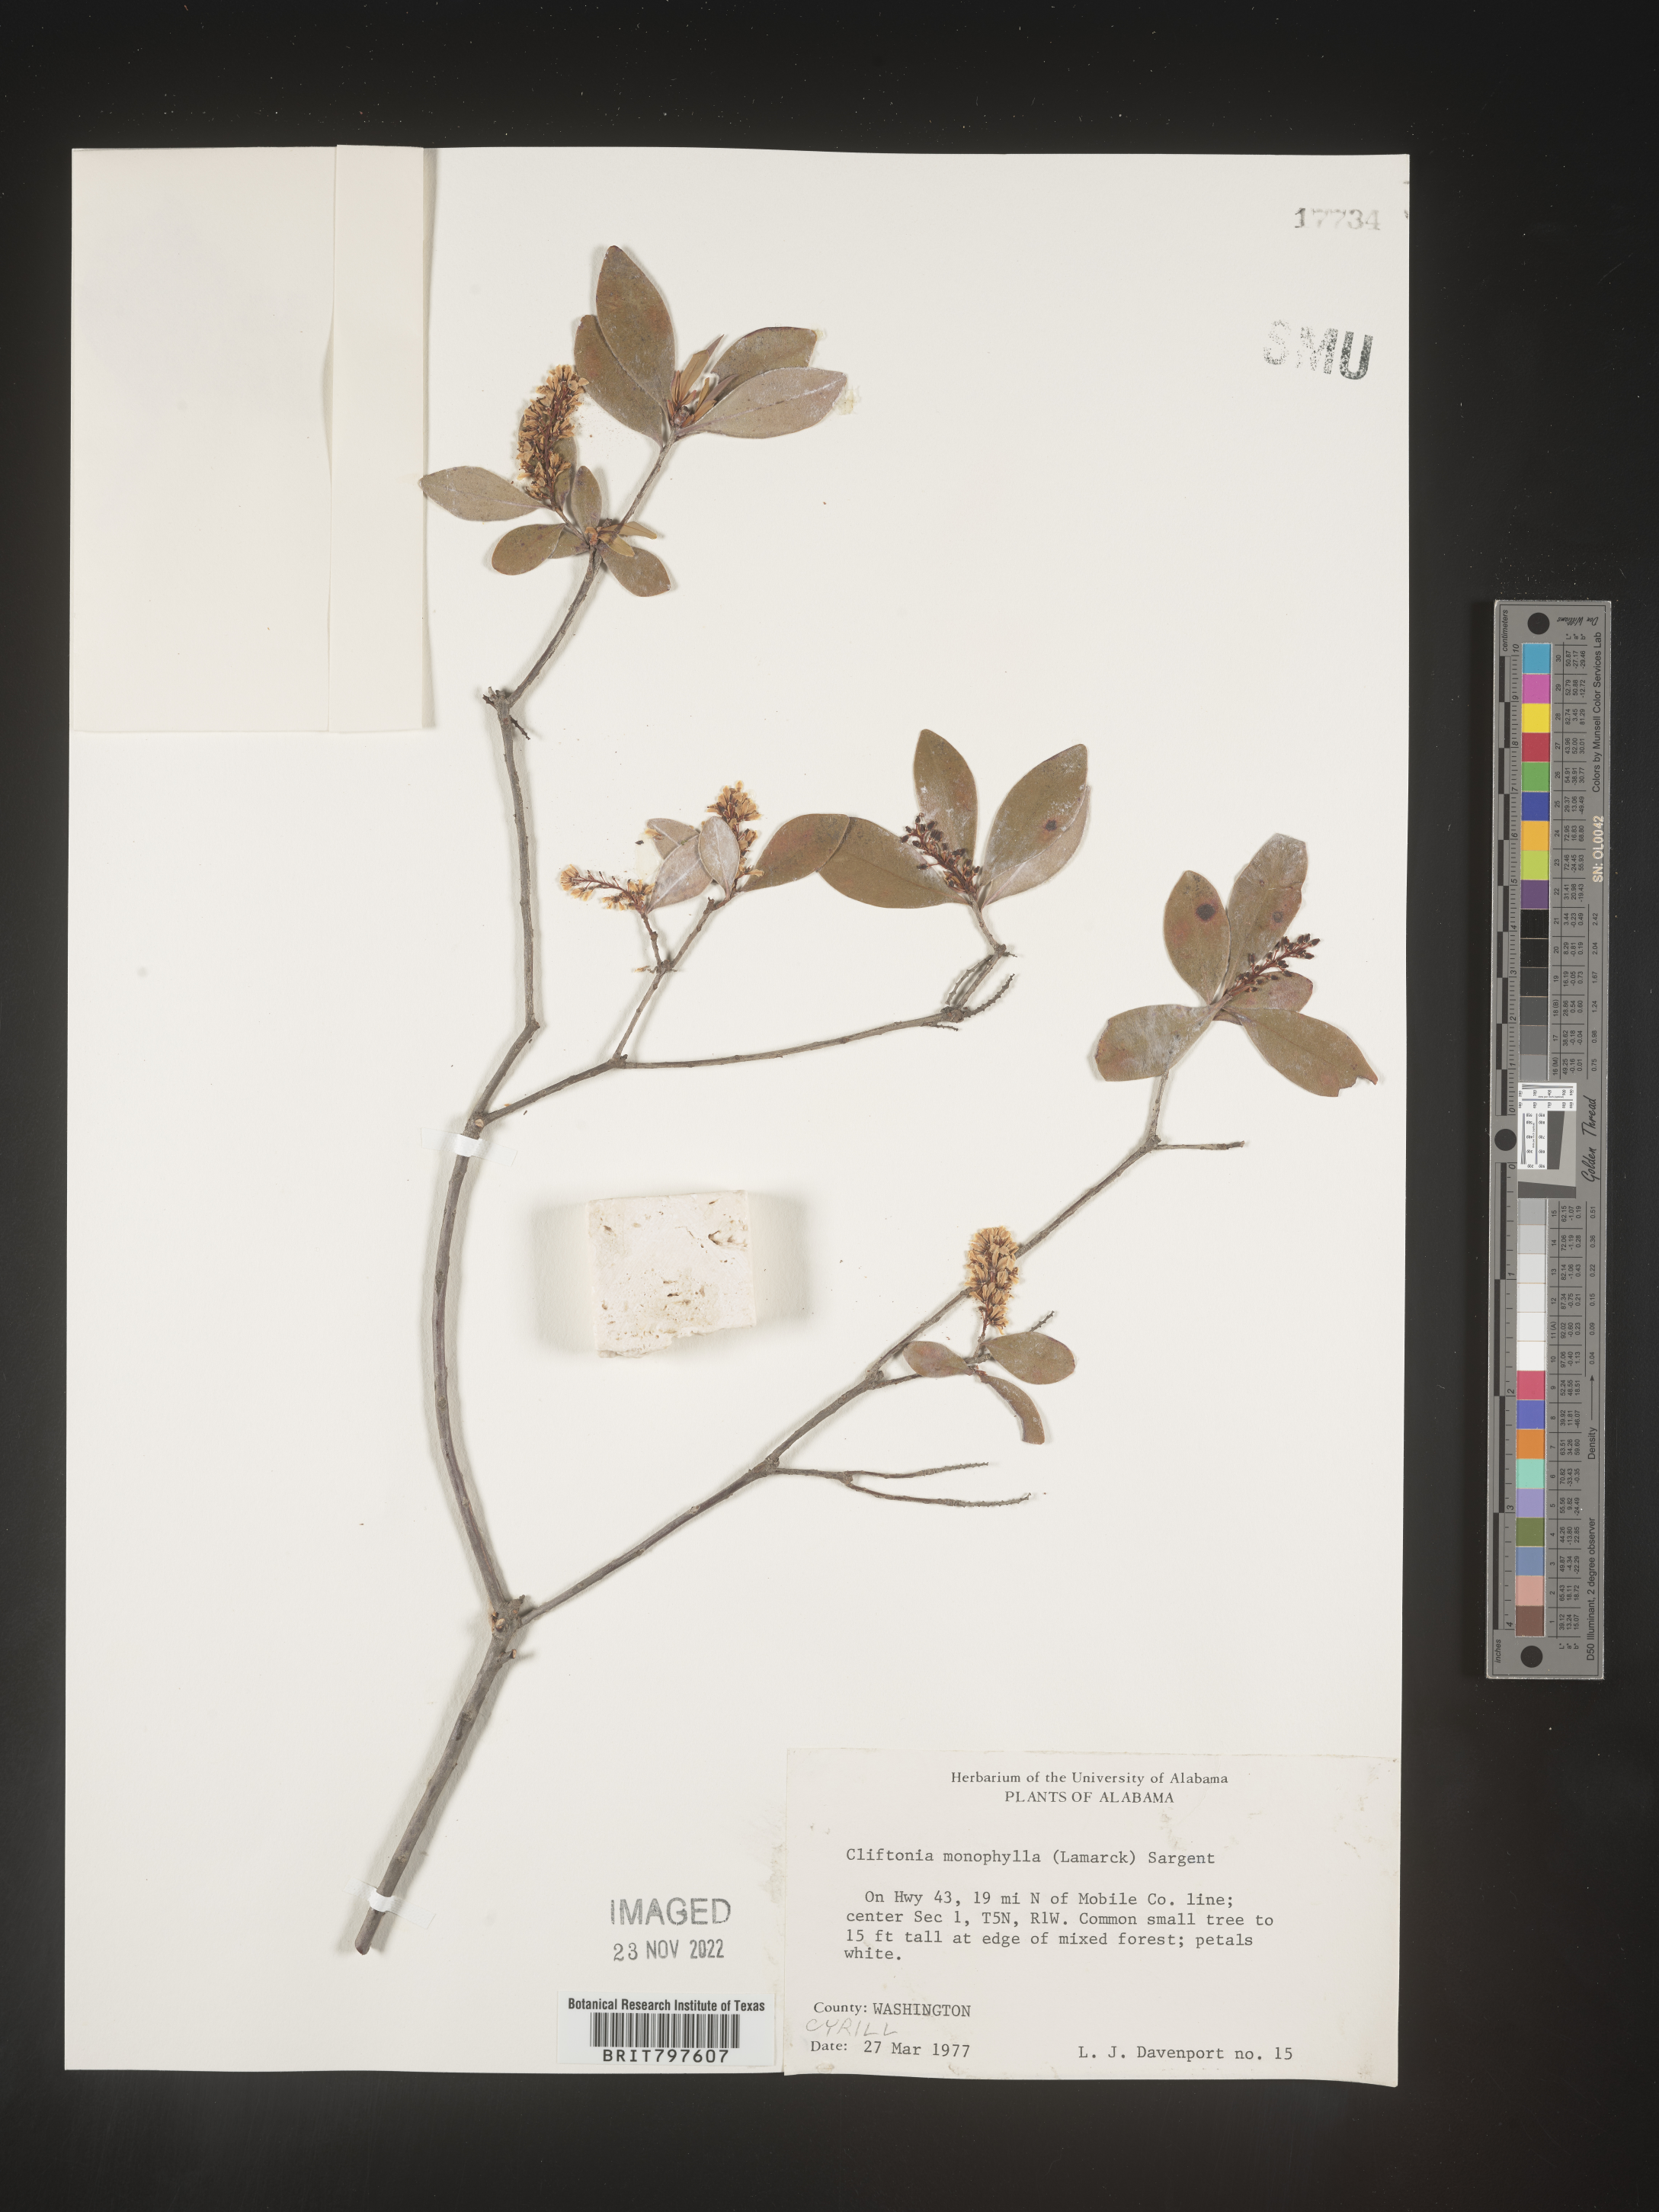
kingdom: Plantae
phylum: Tracheophyta
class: Magnoliopsida
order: Ericales
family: Cyrillaceae
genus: Cliftonia
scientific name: Cliftonia monophylla
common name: Titi
